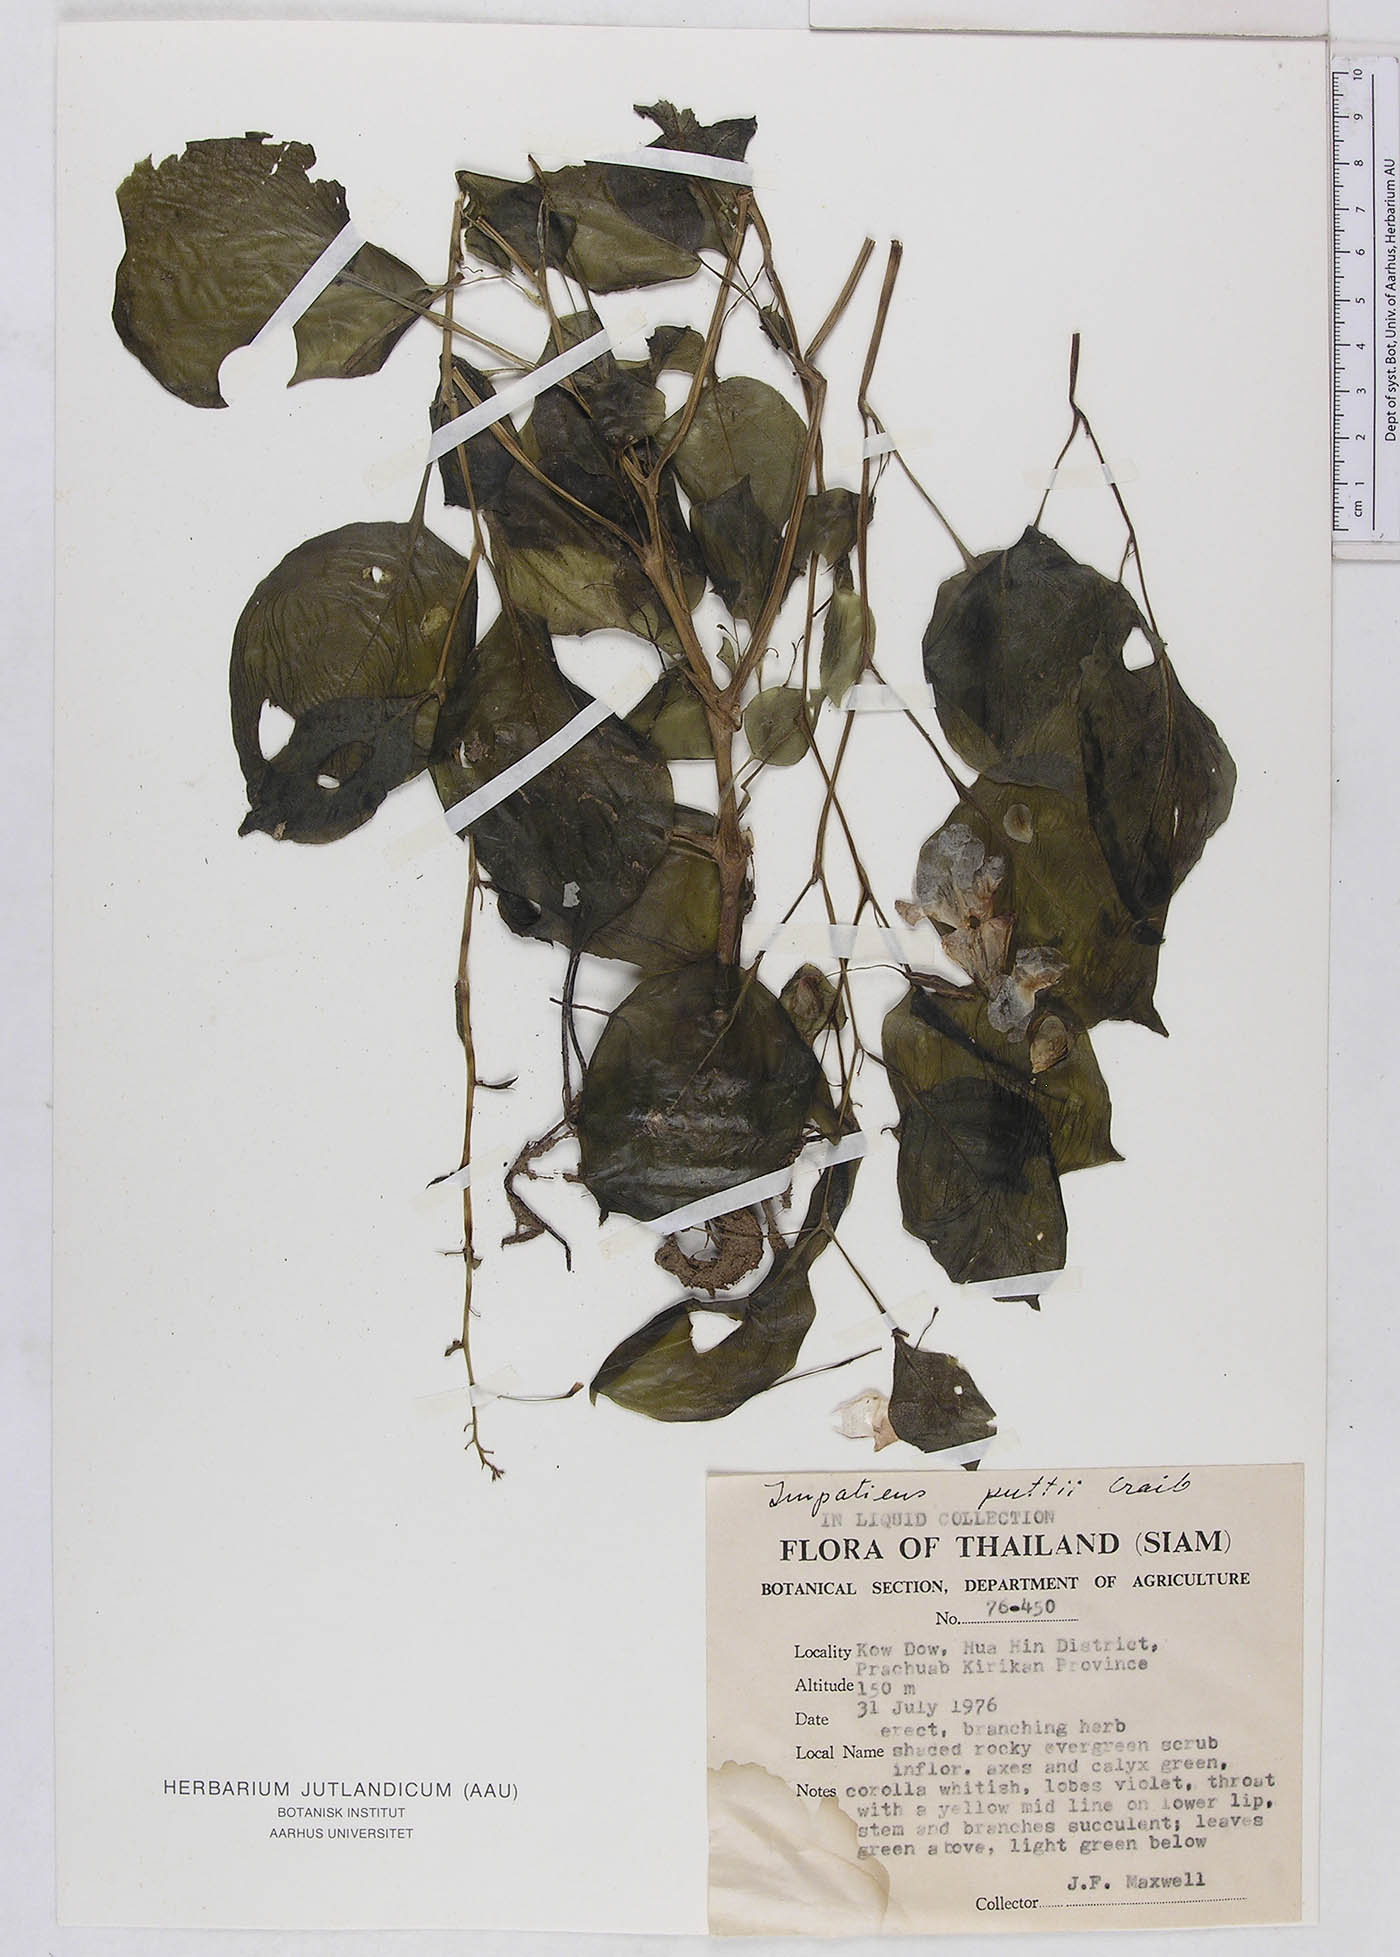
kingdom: Plantae
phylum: Tracheophyta
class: Magnoliopsida
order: Ericales
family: Balsaminaceae
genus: Impatiens
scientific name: Impatiens putii
